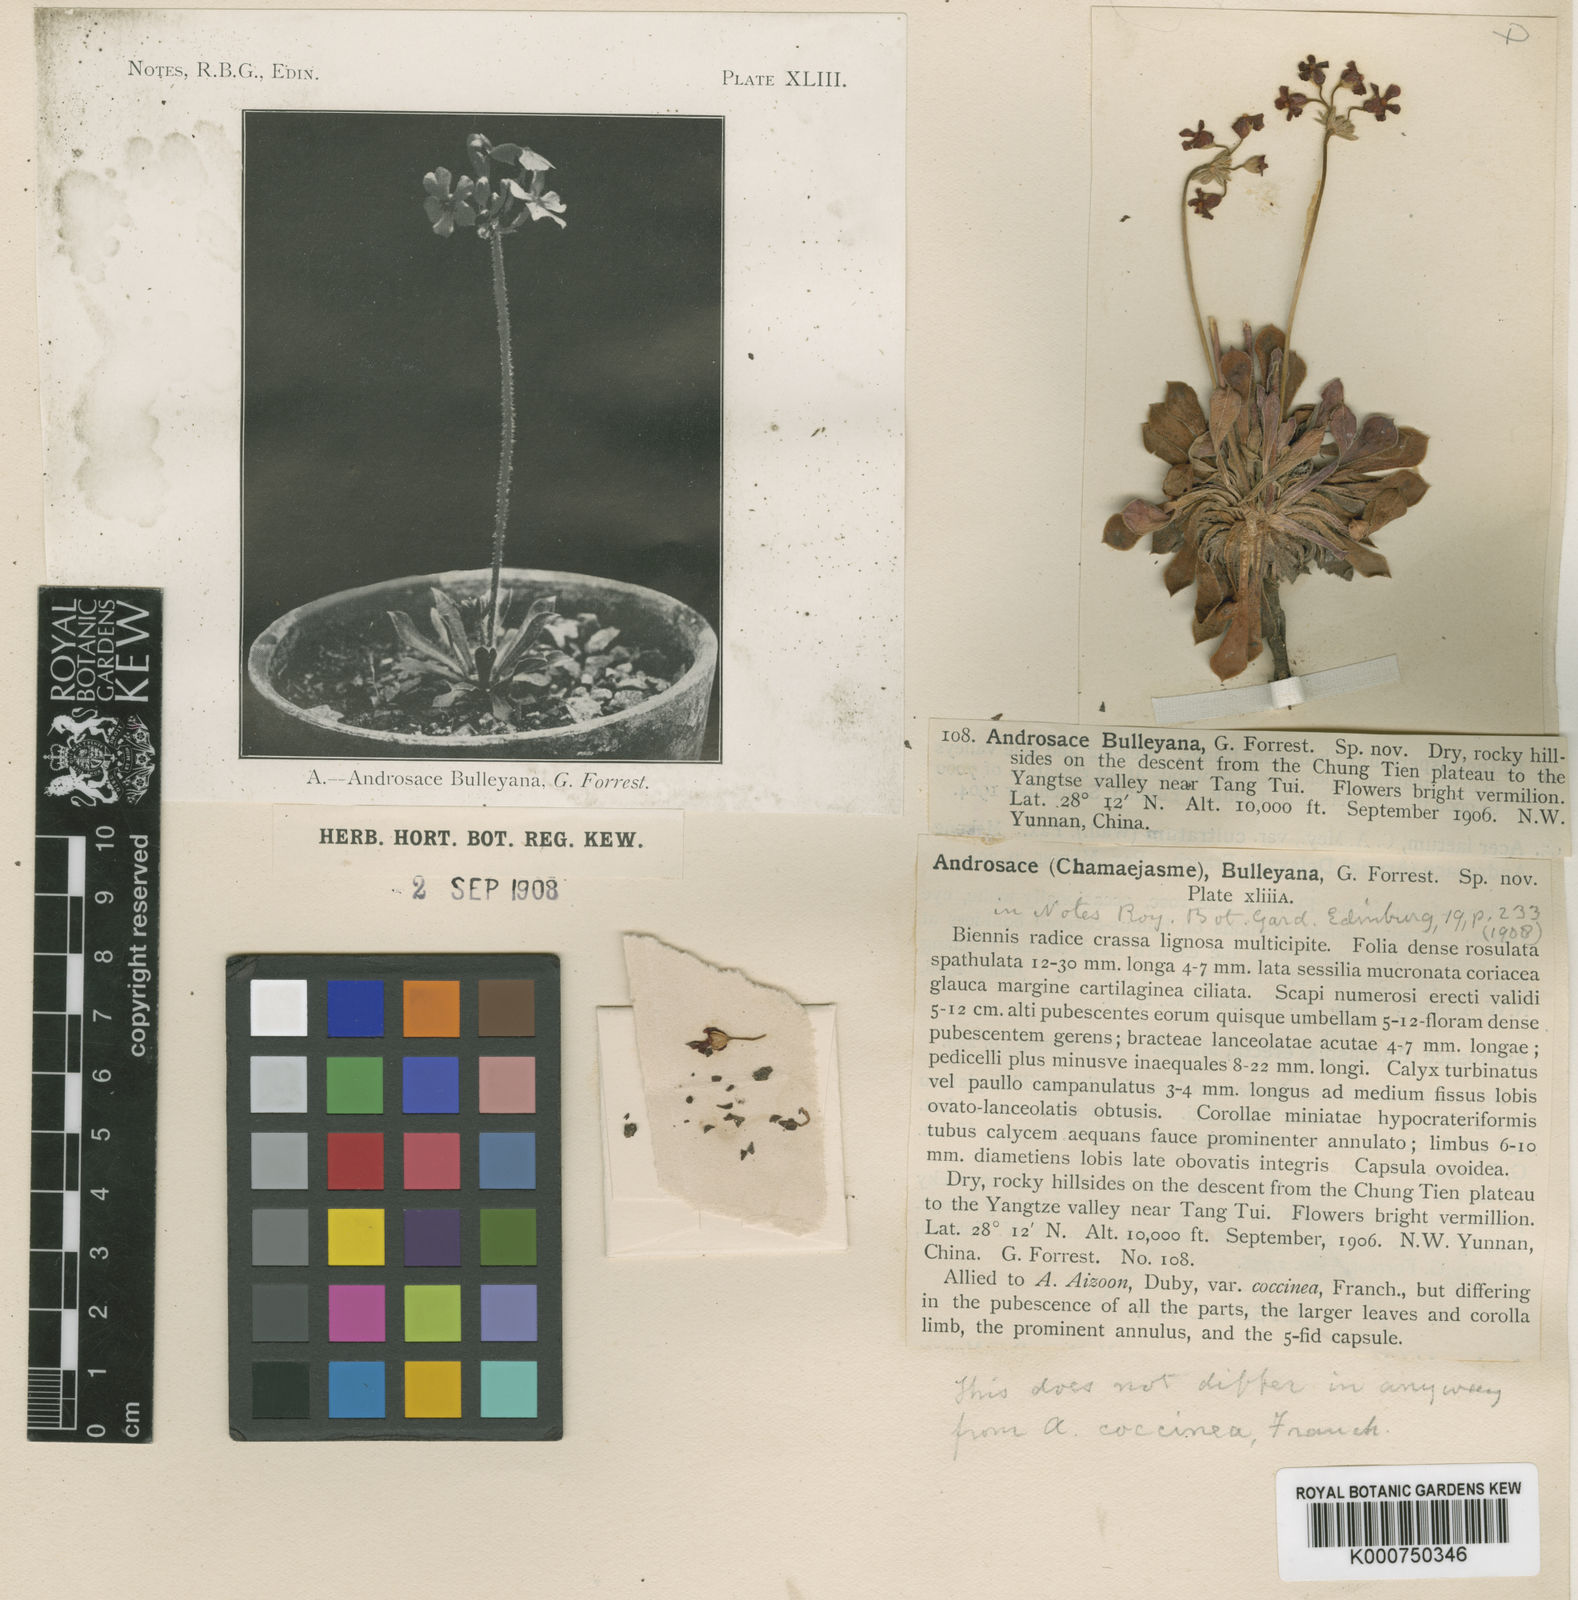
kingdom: Plantae
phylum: Tracheophyta
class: Magnoliopsida
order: Ericales
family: Primulaceae
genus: Androsace
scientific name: Androsace coccinea
